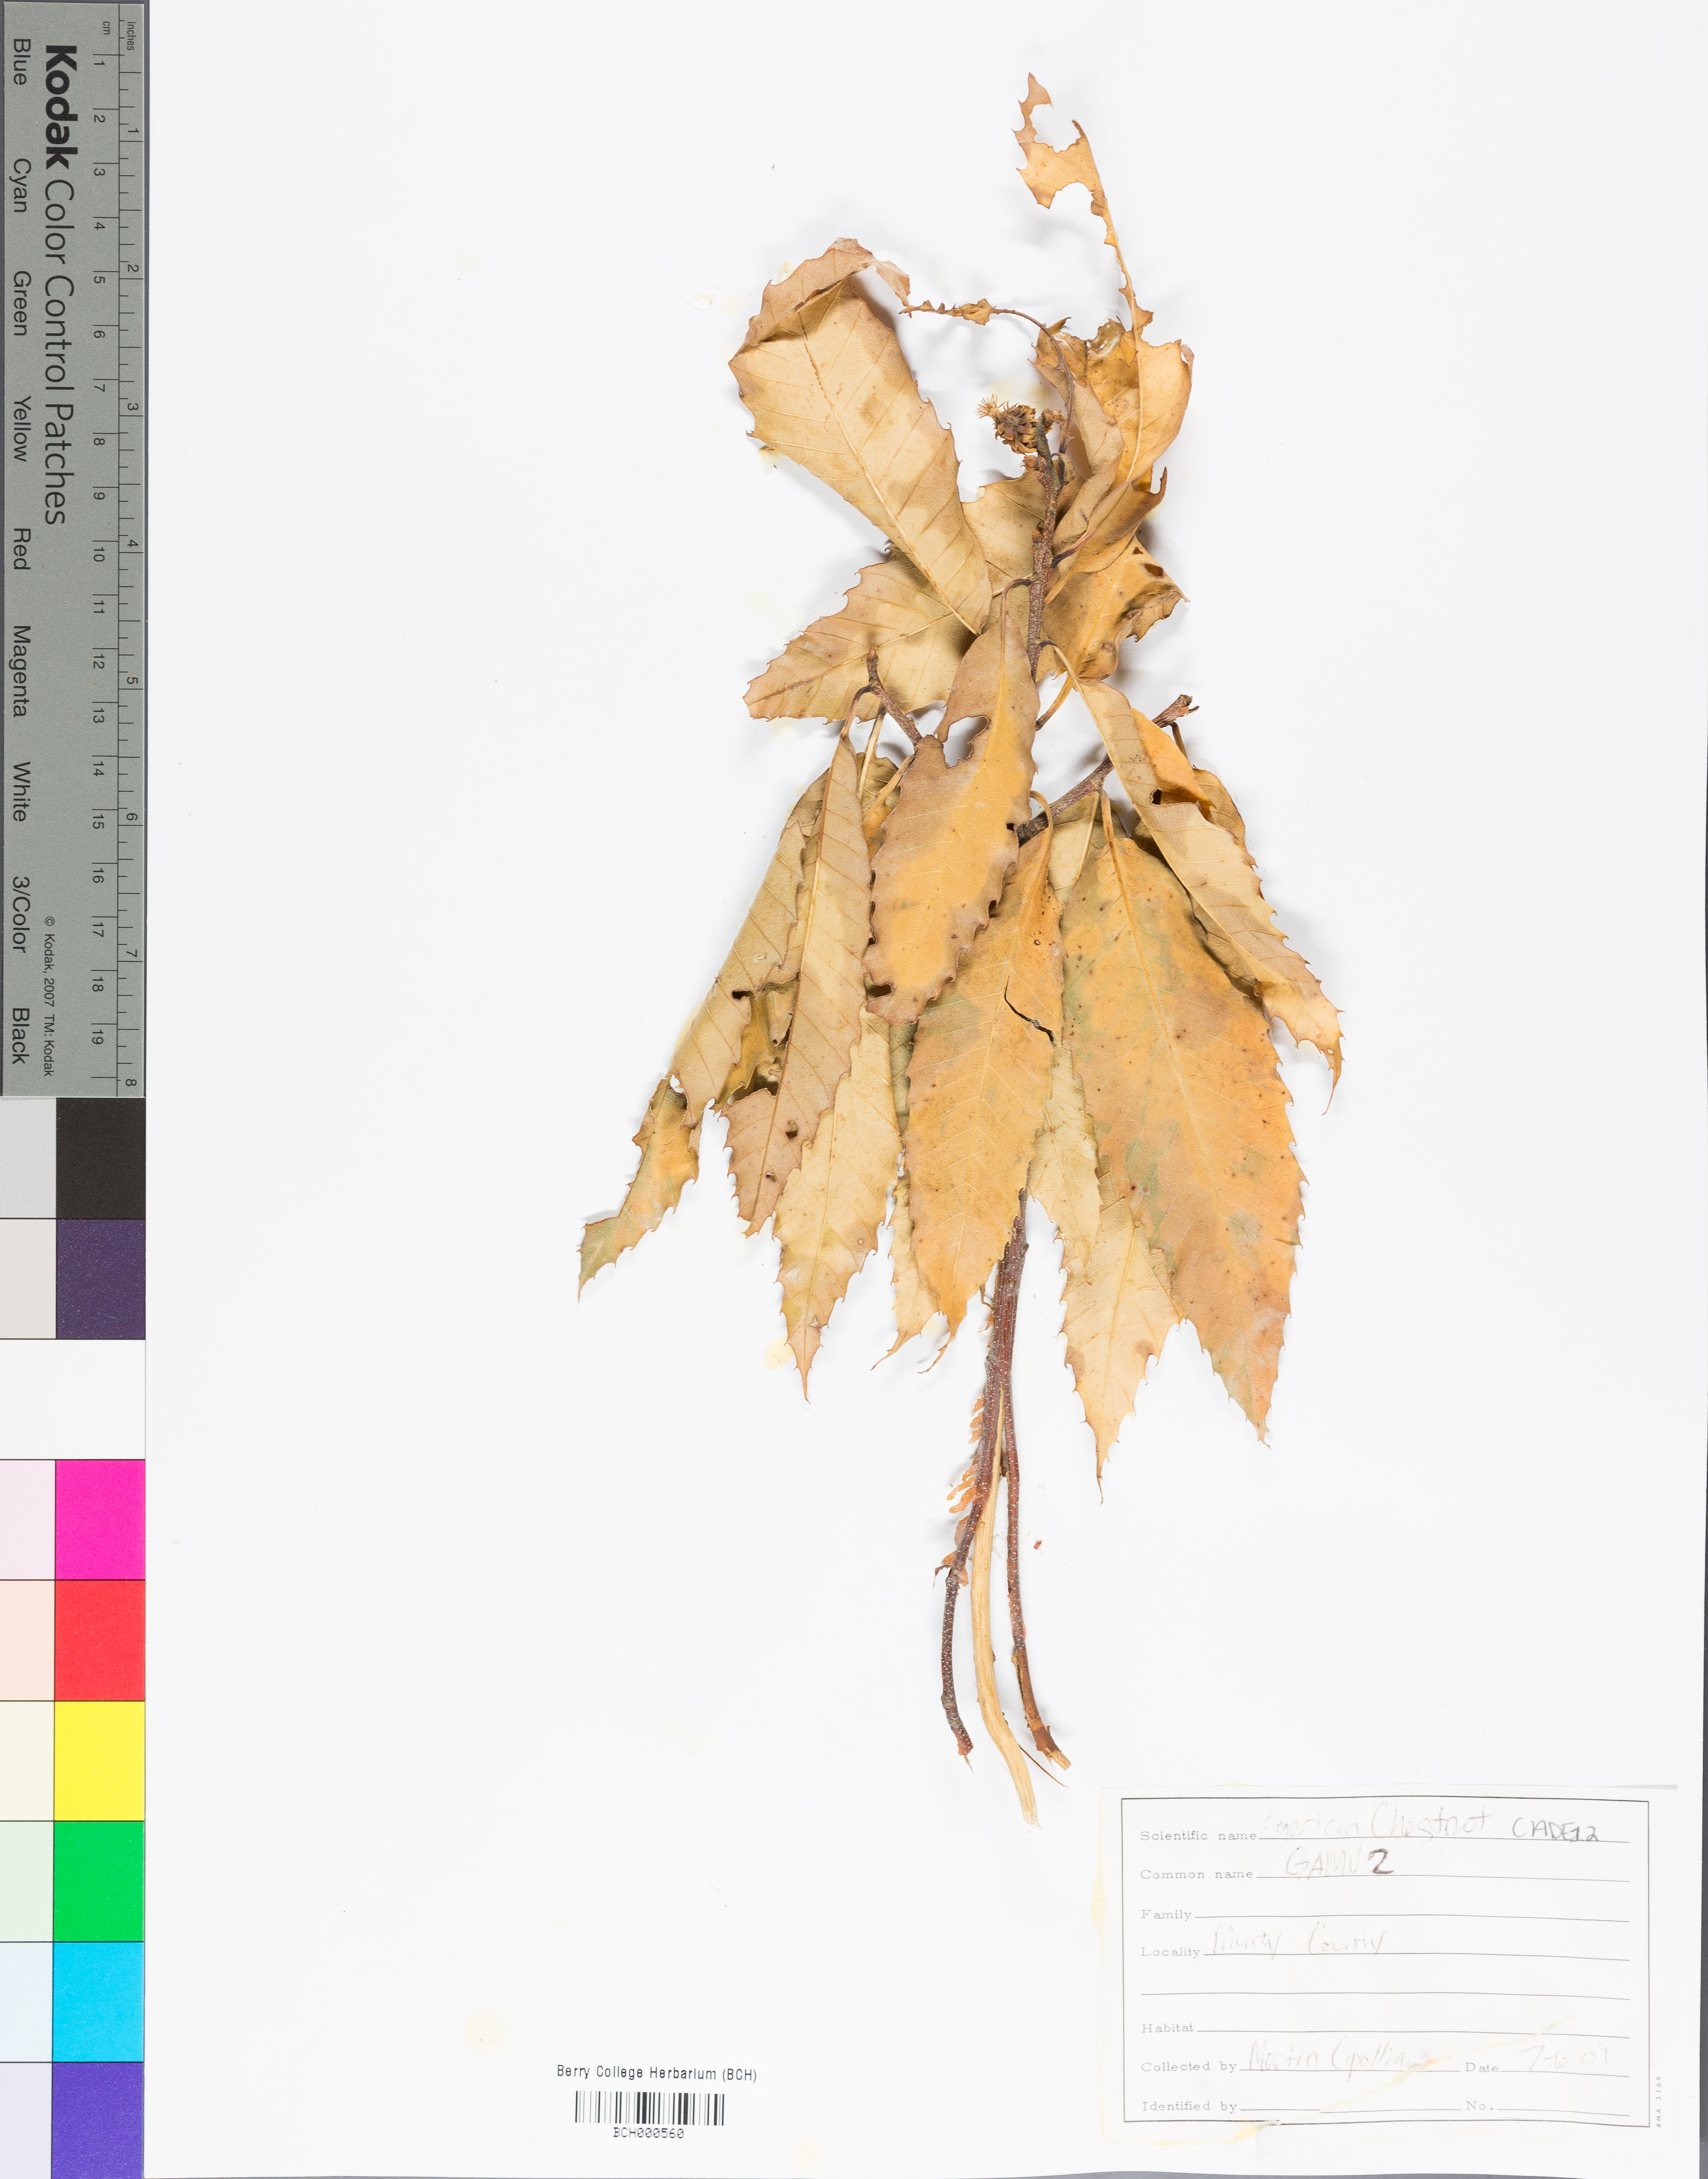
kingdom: Plantae
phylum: Tracheophyta
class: Magnoliopsida
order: Fagales
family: Fagaceae
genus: Castanea
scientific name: Castanea dentata
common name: American chestnut
